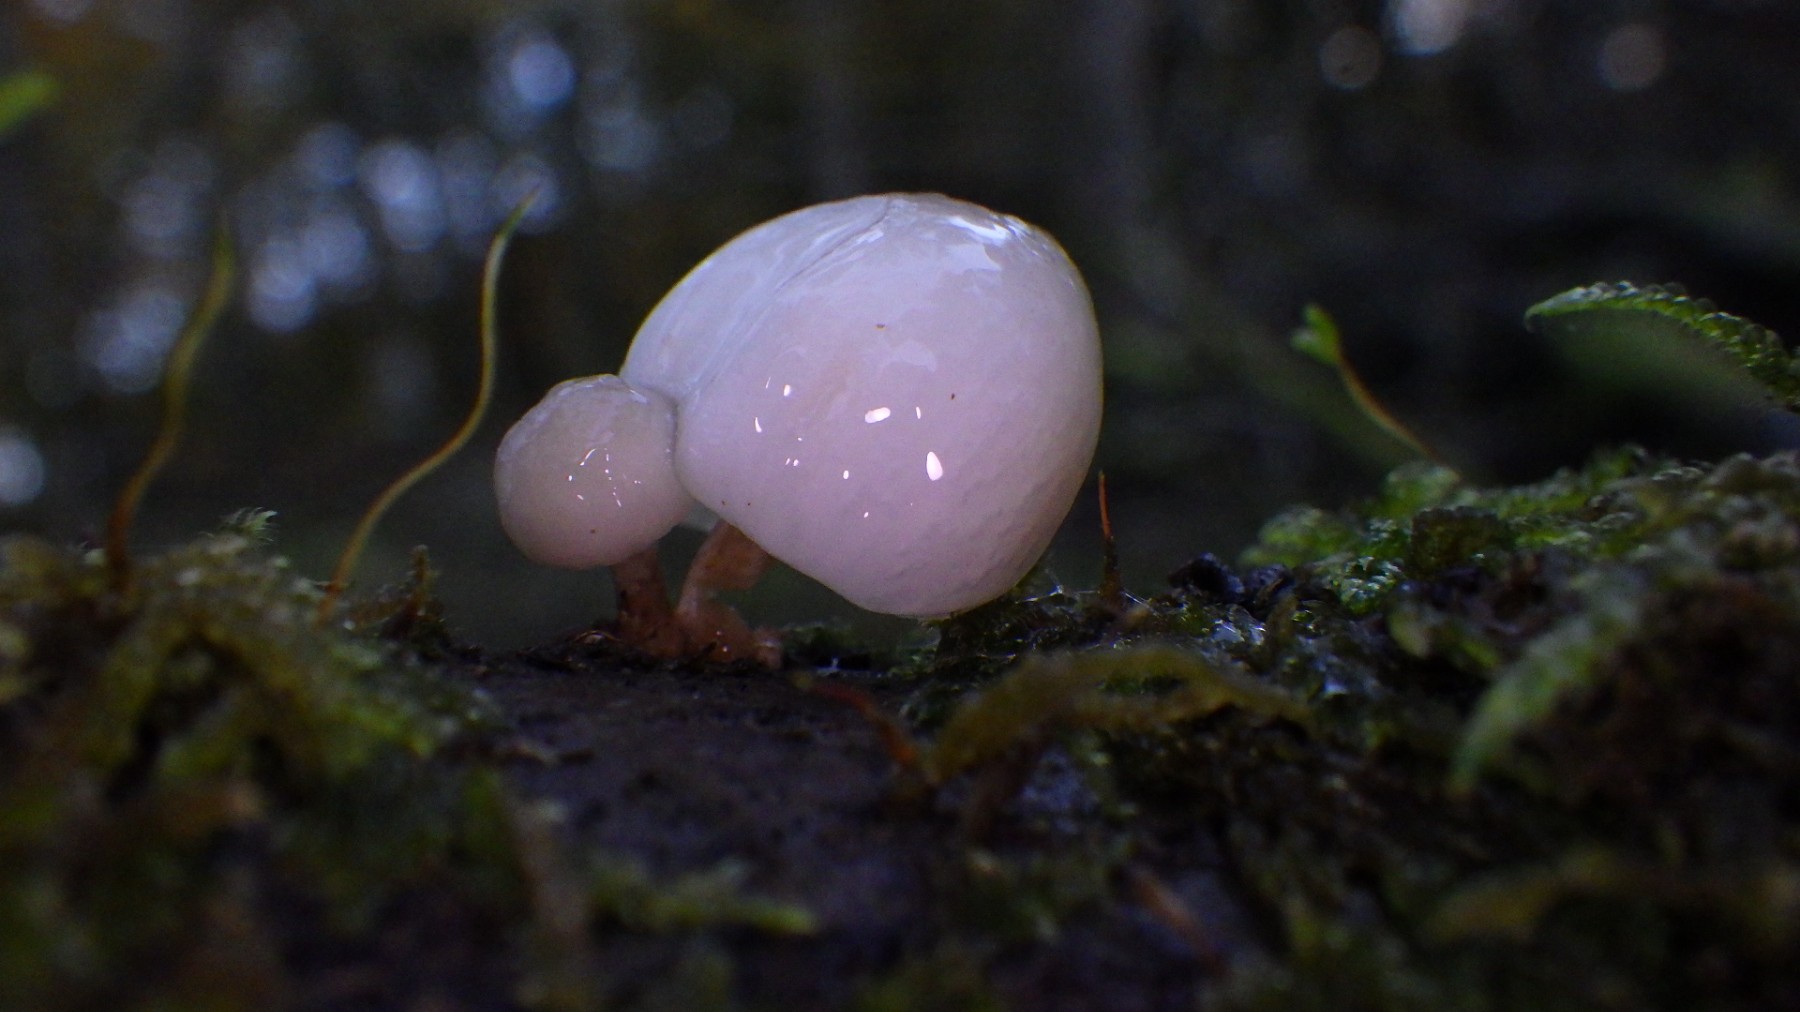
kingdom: Fungi
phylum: Basidiomycota
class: Agaricomycetes
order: Agaricales
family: Physalacriaceae
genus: Mucidula
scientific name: Mucidula mucida
